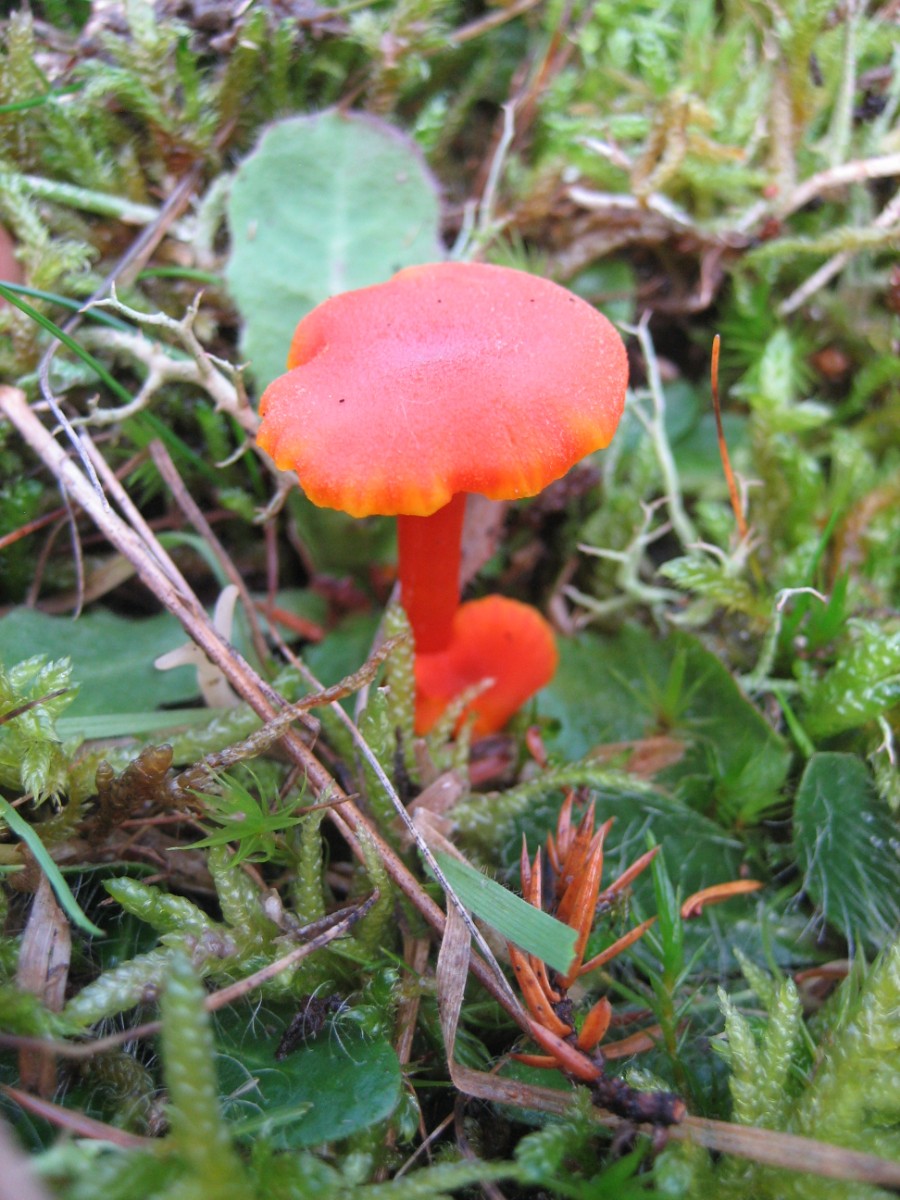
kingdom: Fungi
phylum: Basidiomycota
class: Agaricomycetes
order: Agaricales
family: Hygrophoraceae
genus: Hygrocybe
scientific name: Hygrocybe miniata
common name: mønje-vokshat
